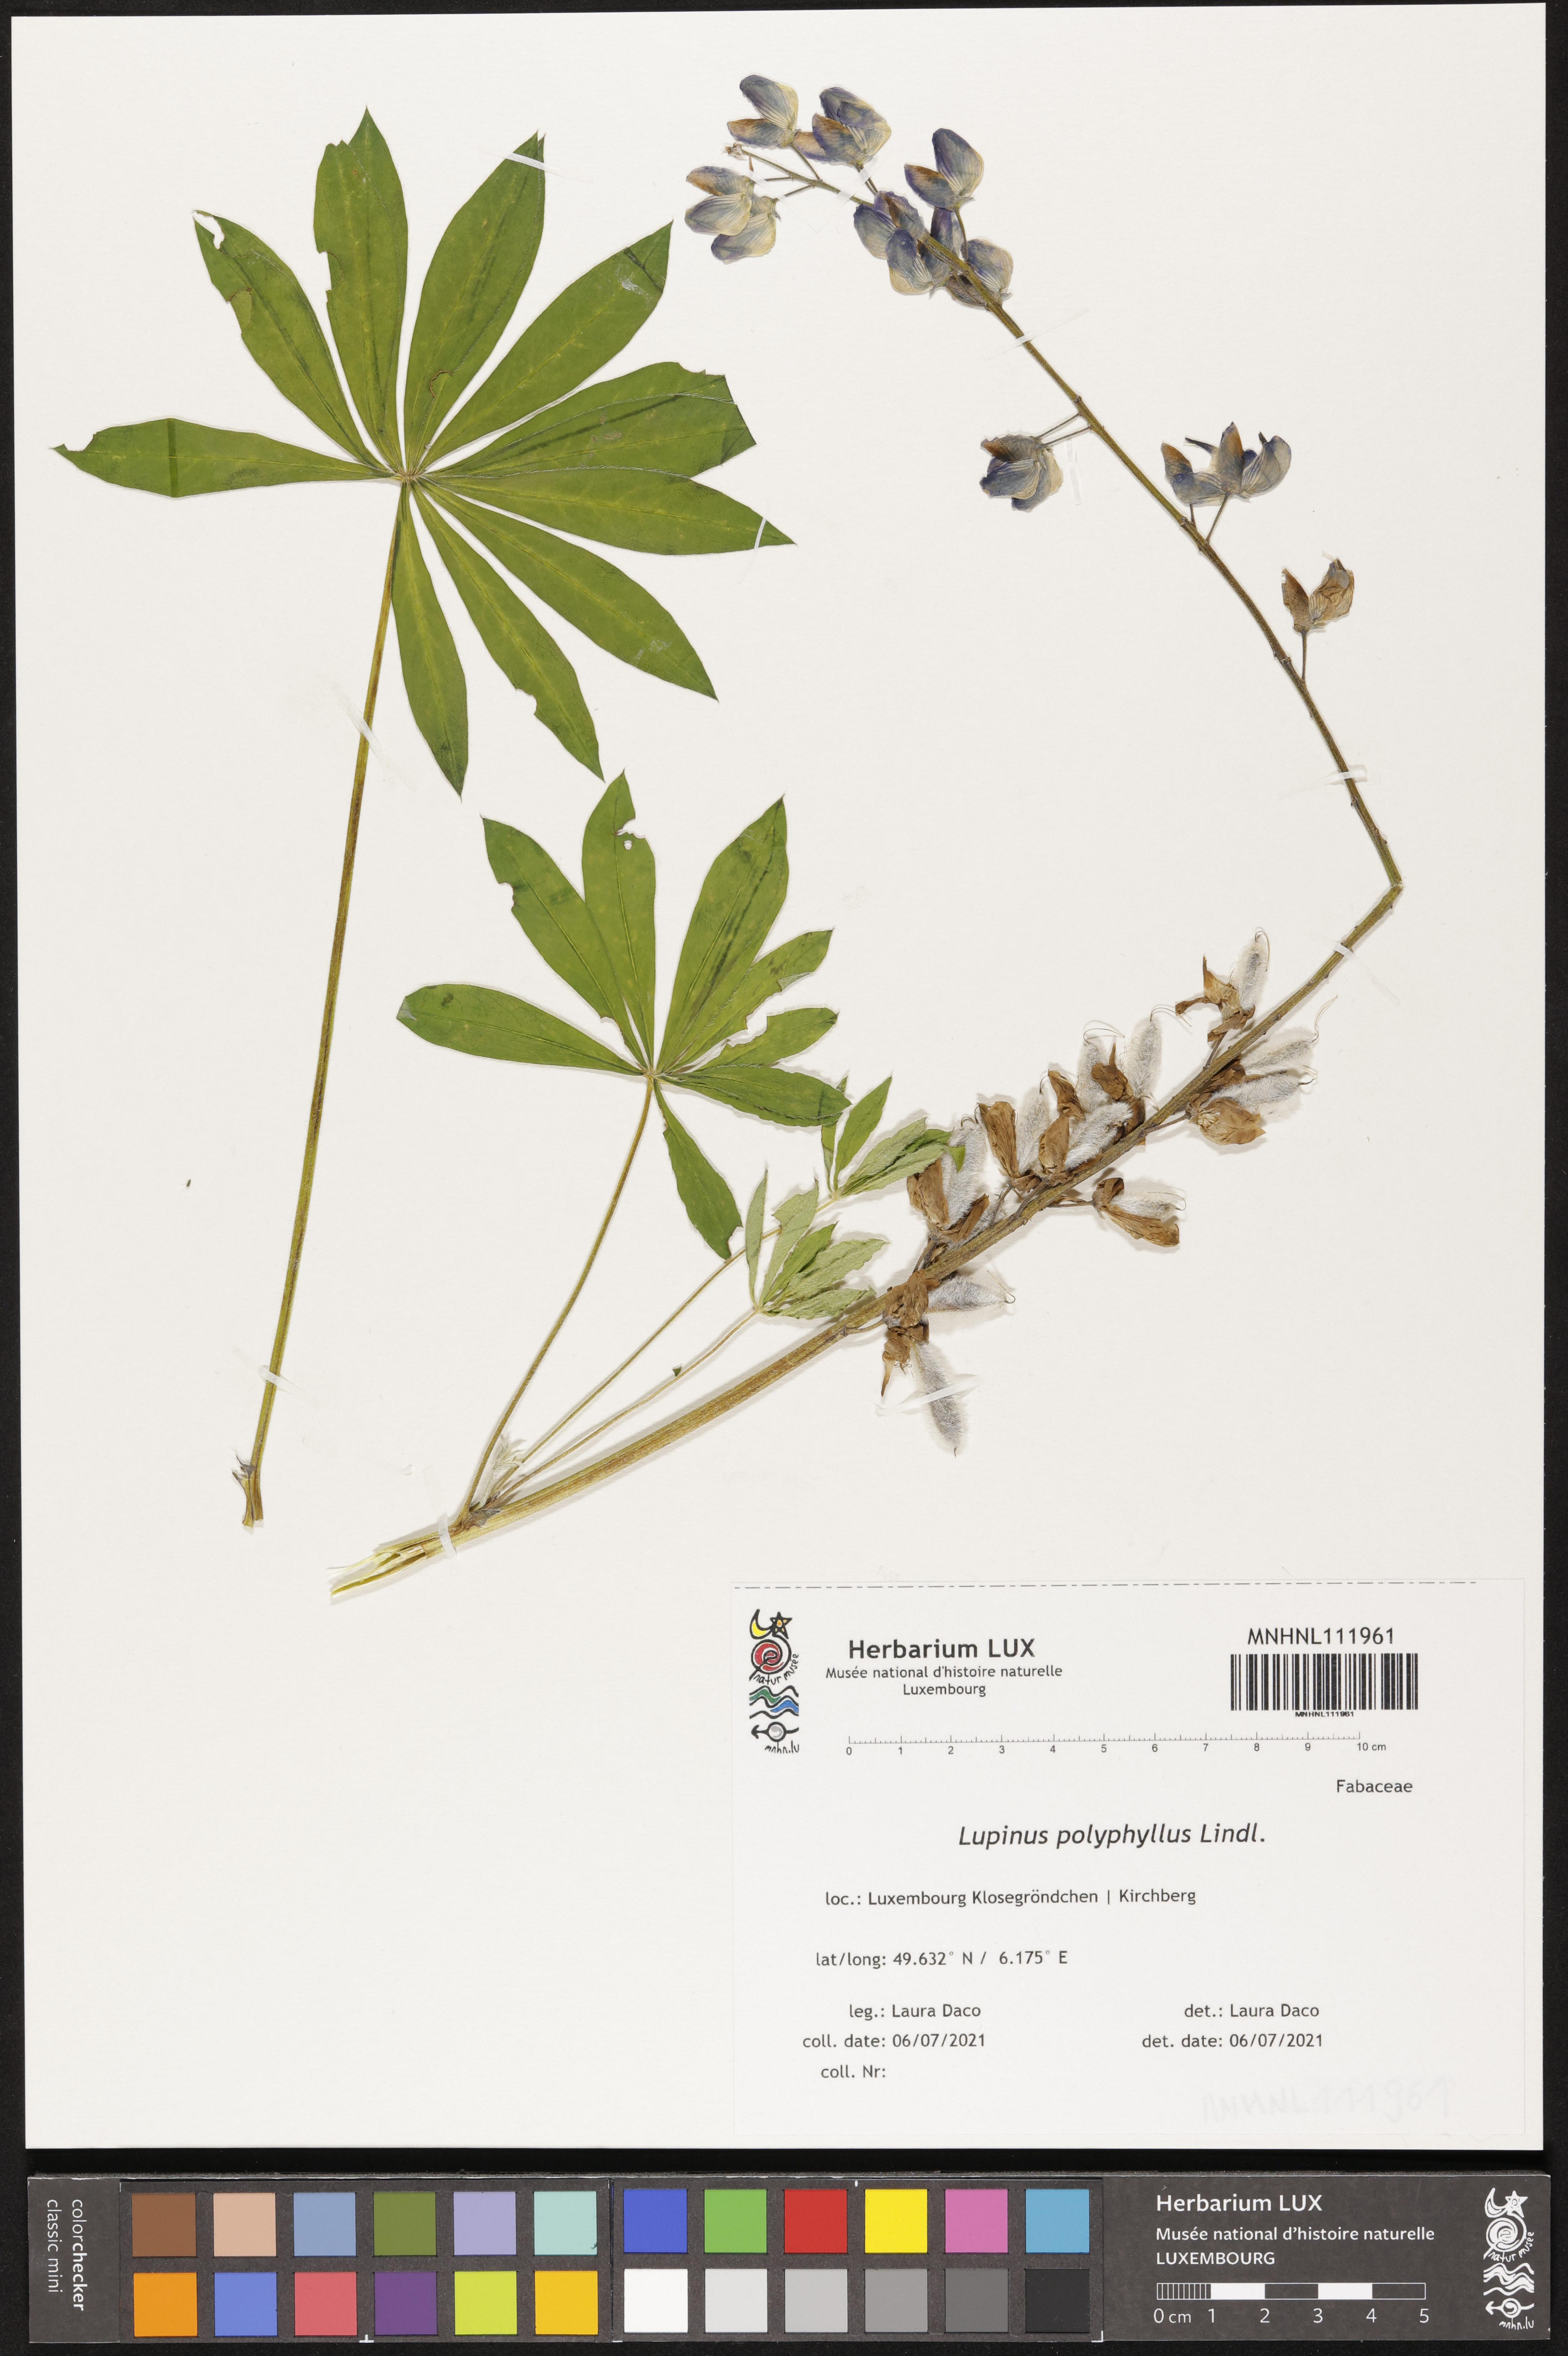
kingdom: Plantae
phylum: Tracheophyta
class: Magnoliopsida
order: Fabales
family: Fabaceae
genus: Lupinus
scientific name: Lupinus polyphyllus
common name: Garden lupin
